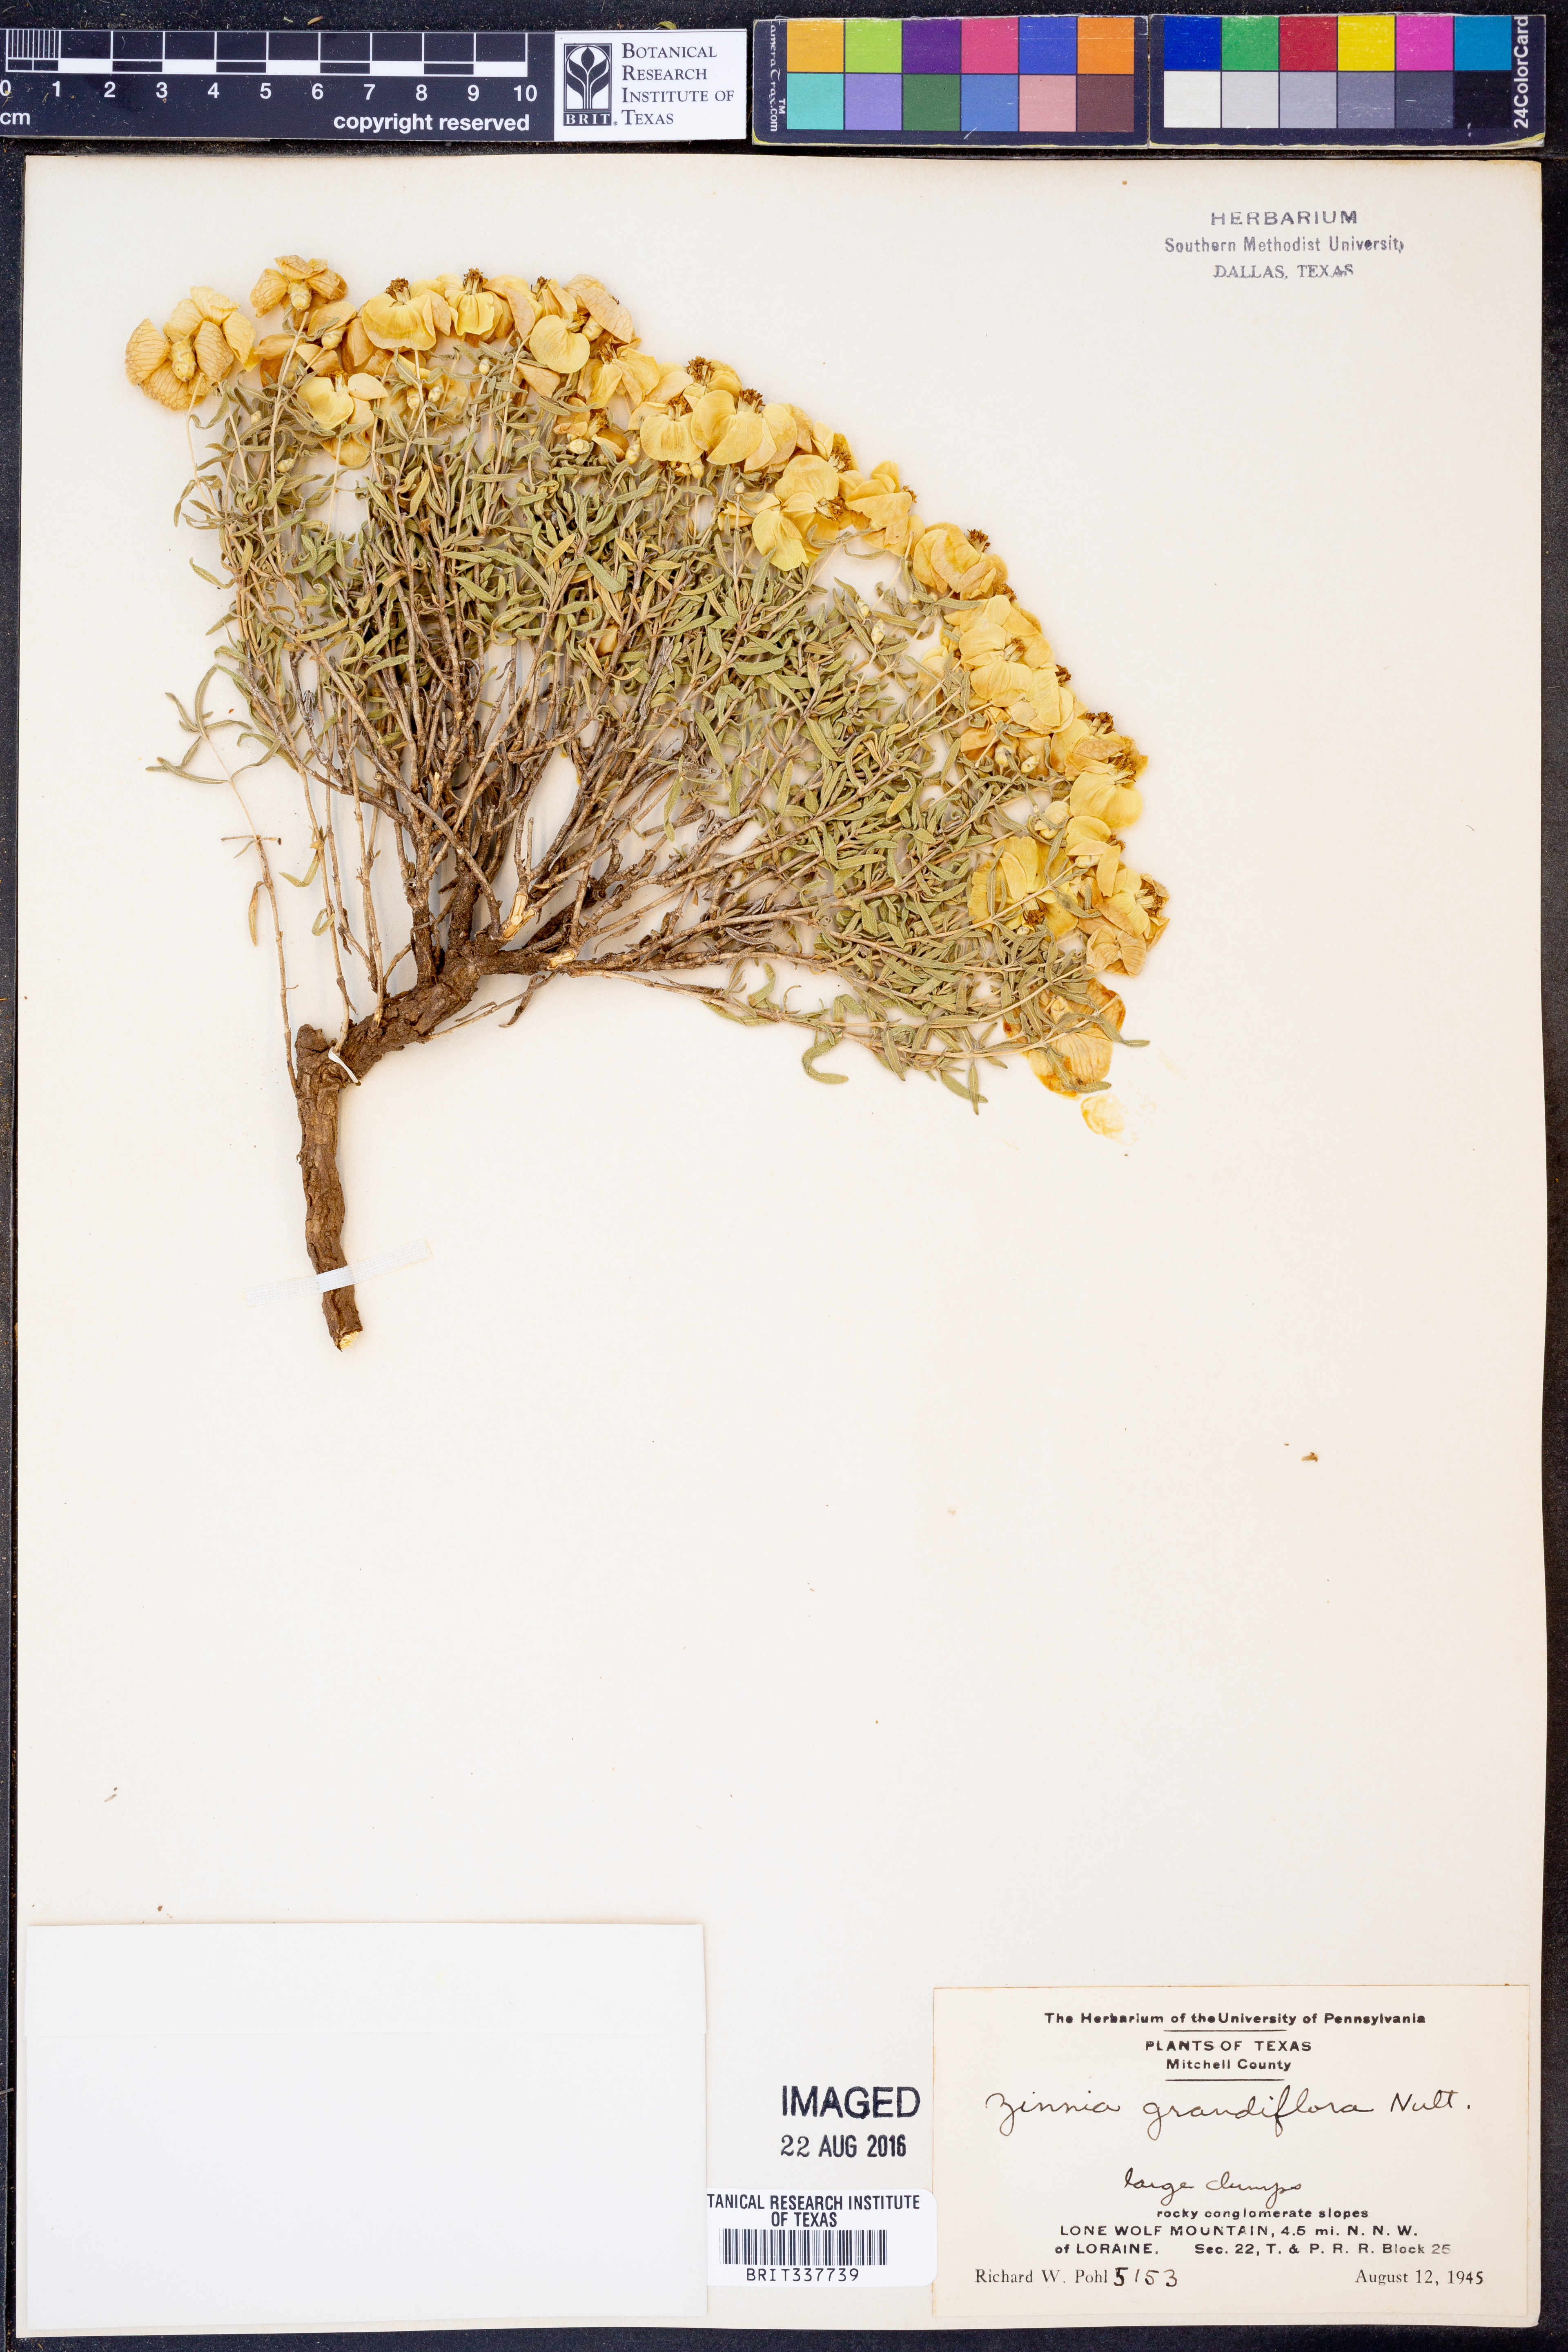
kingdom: Plantae
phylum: Tracheophyta
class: Magnoliopsida
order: Asterales
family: Asteraceae
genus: Zinnia
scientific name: Zinnia grandiflora
